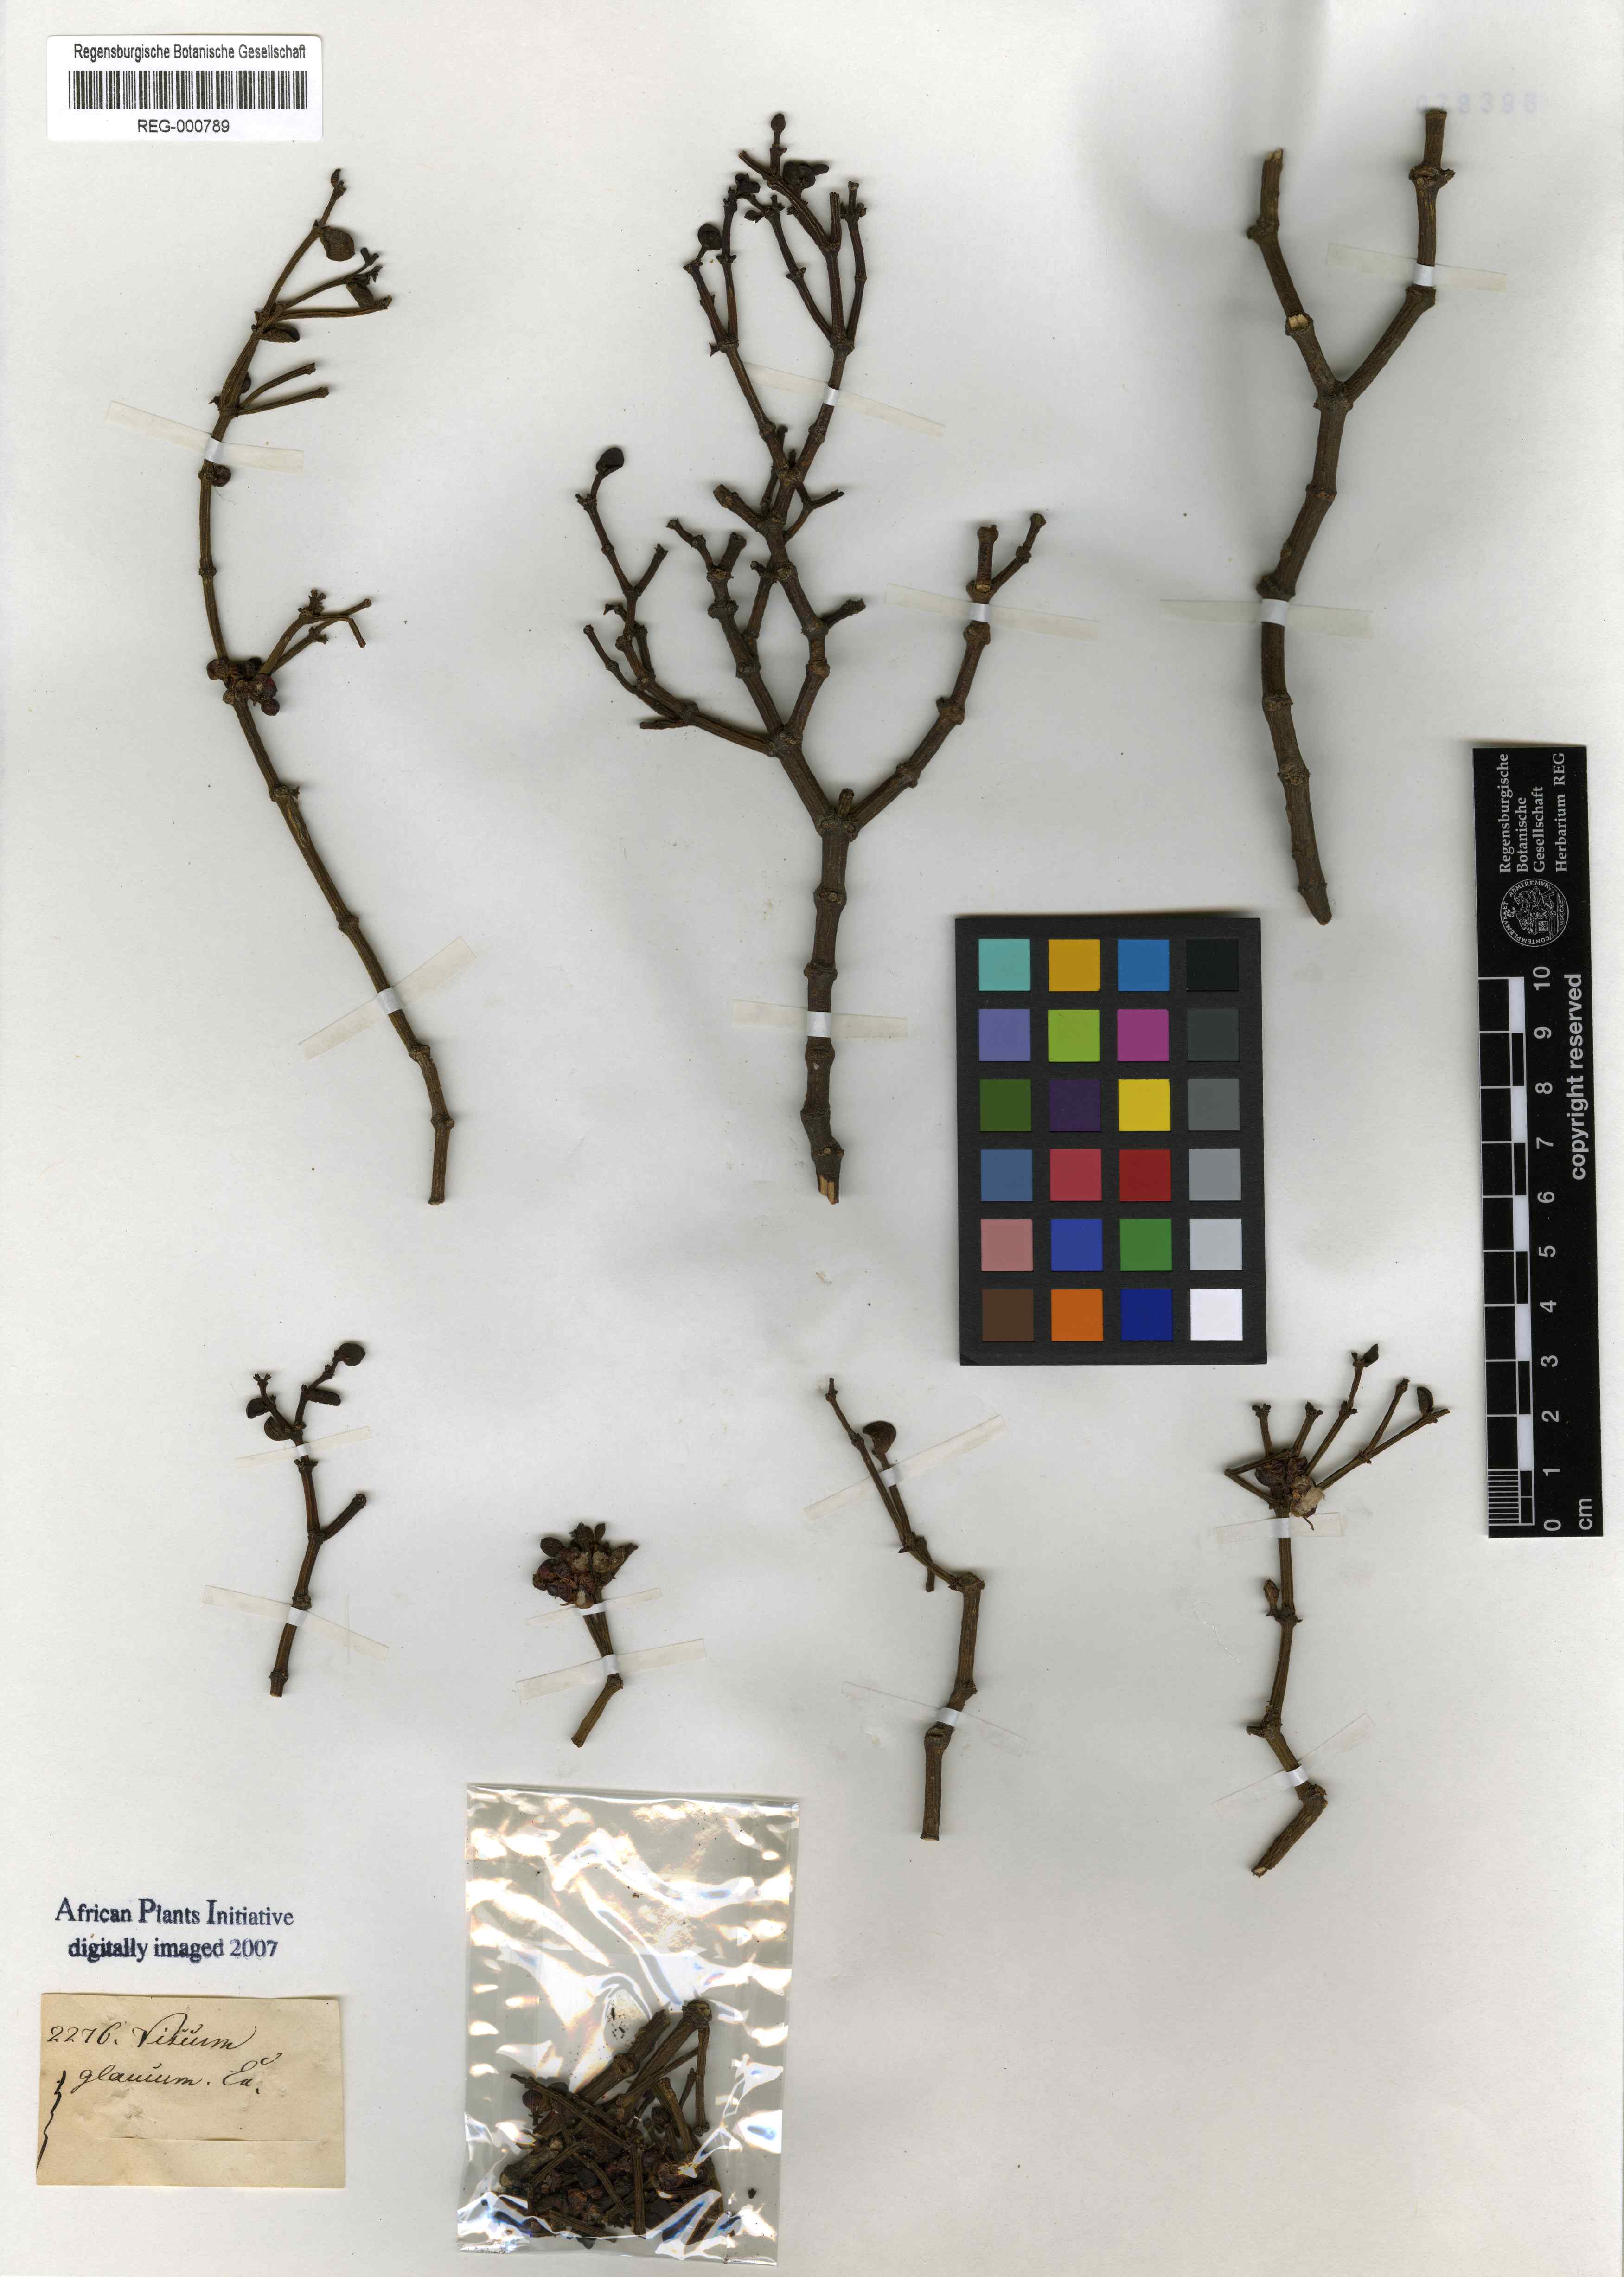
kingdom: Plantae
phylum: Tracheophyta
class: Magnoliopsida
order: Santalales
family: Viscaceae
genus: Viscum
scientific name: Viscum rotundifolium
